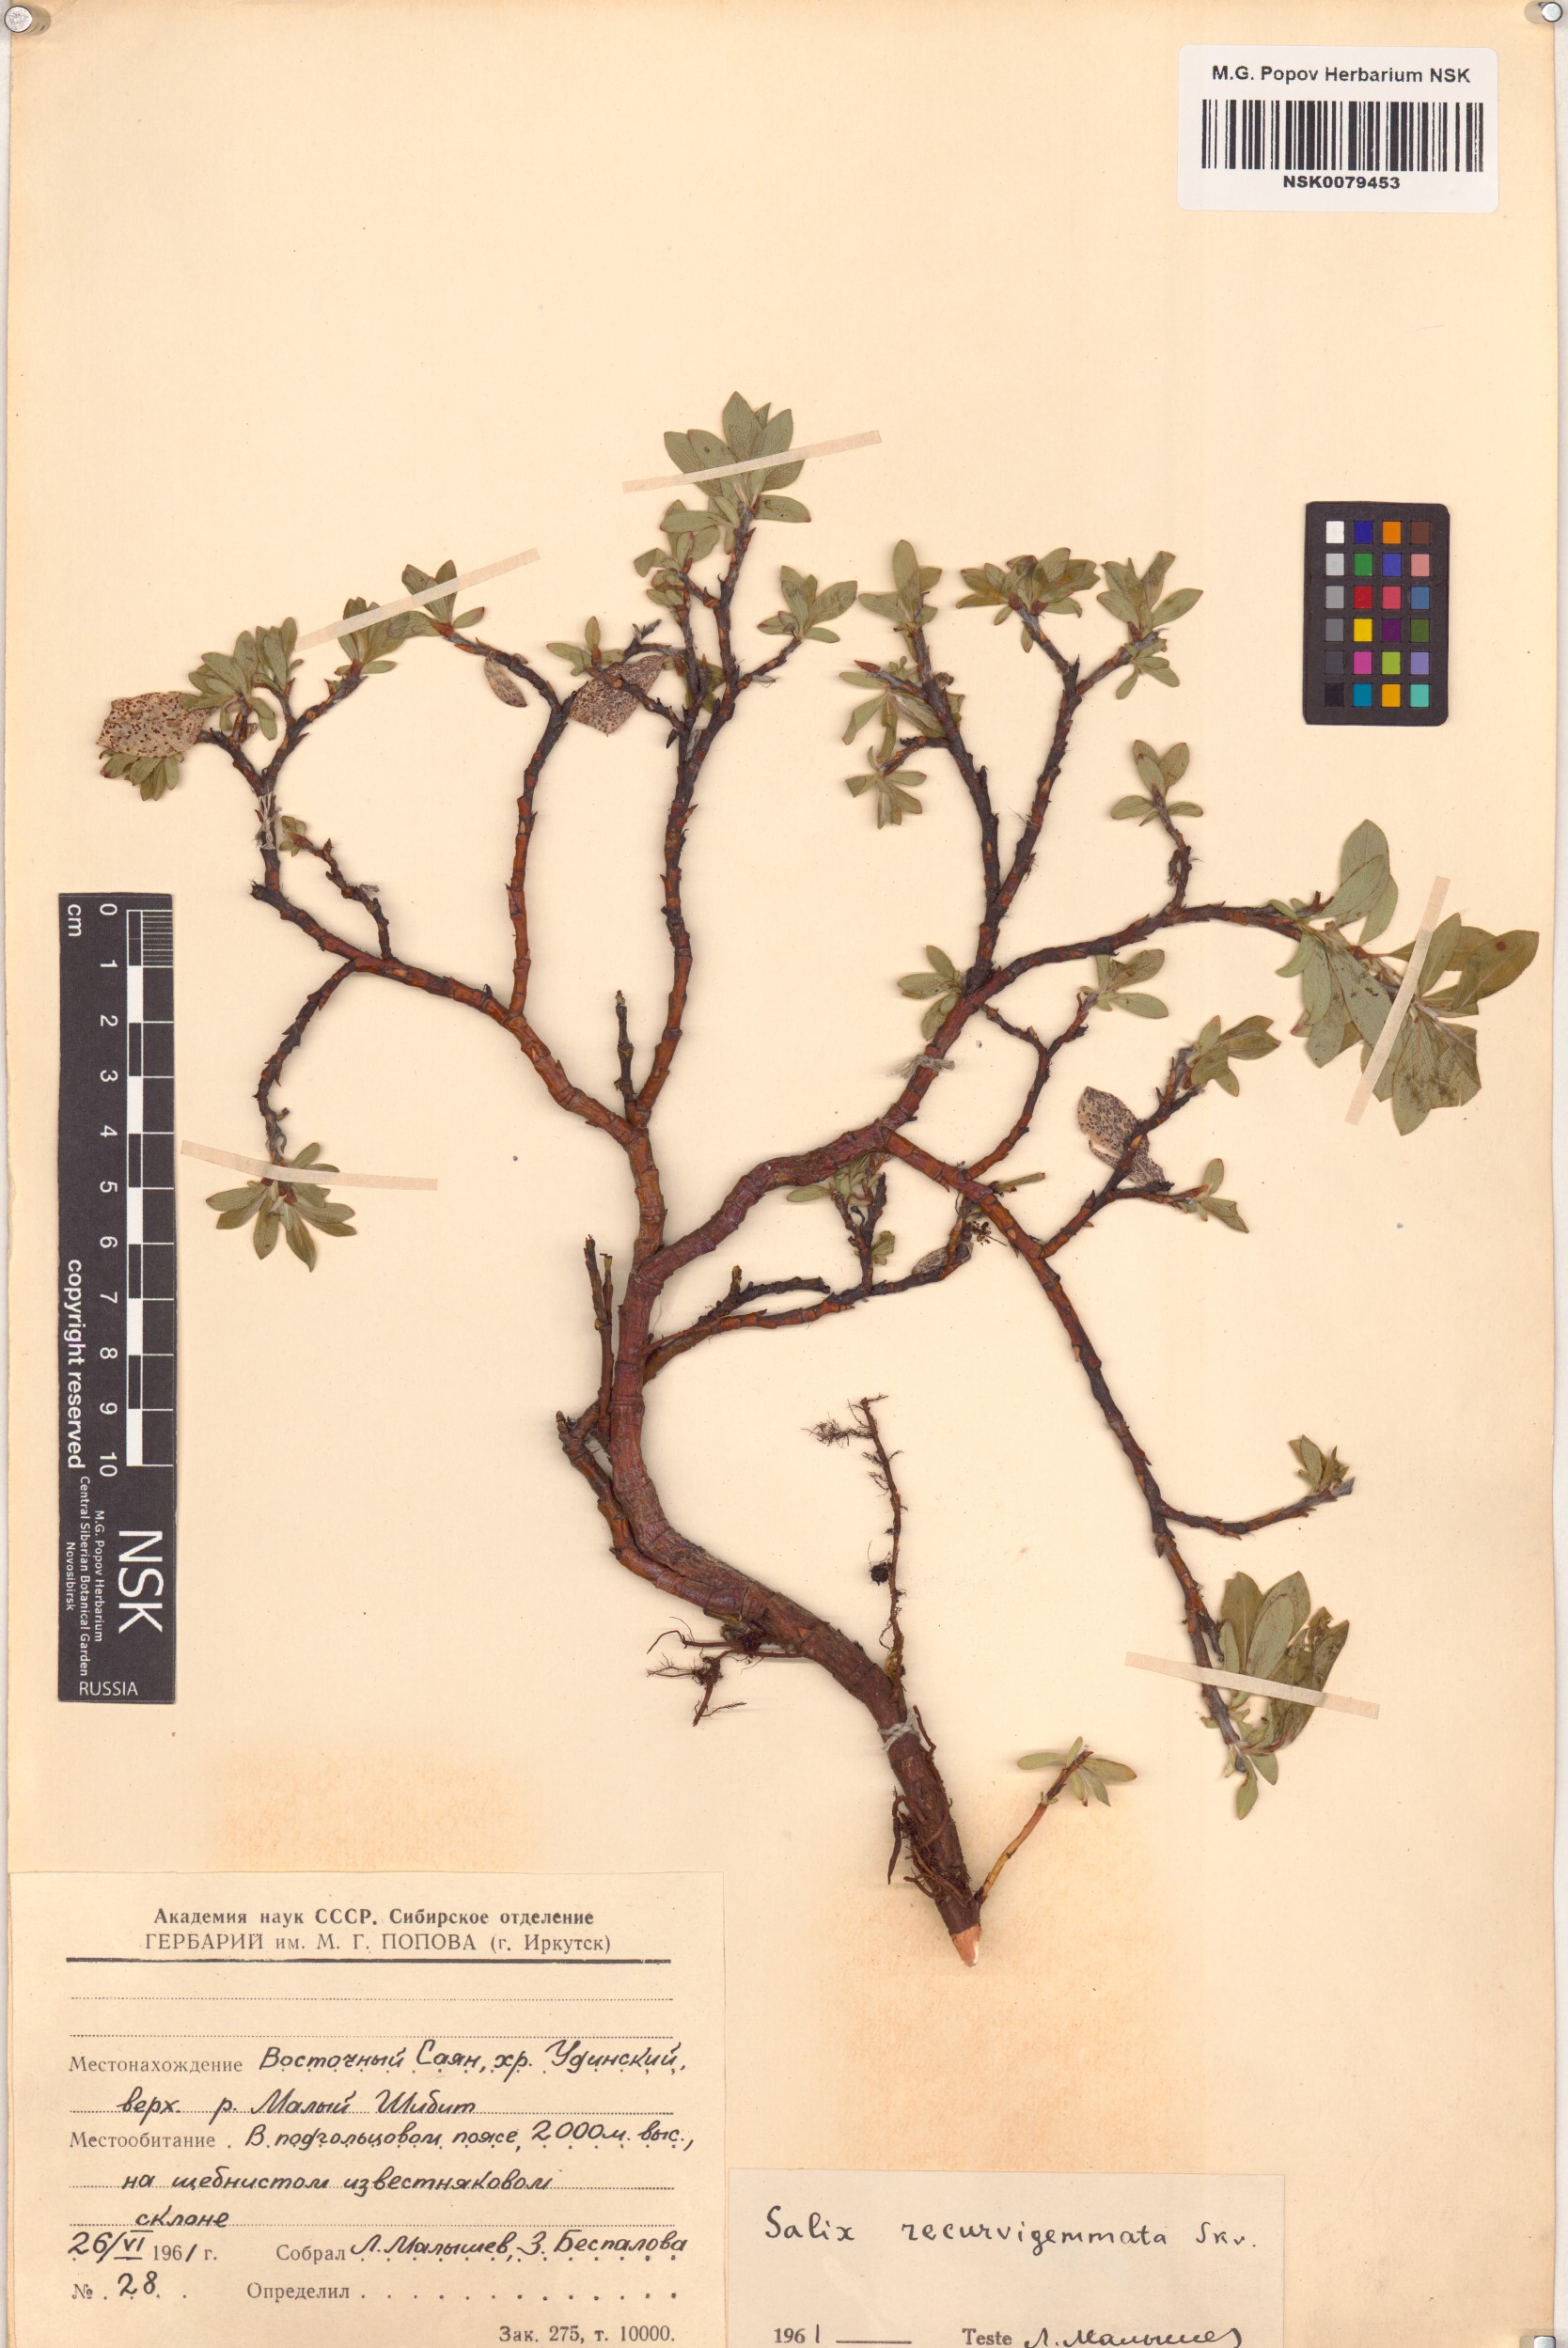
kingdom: Plantae
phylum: Tracheophyta
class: Magnoliopsida
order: Malpighiales
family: Salicaceae
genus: Salix
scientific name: Salix recurvigemmata
